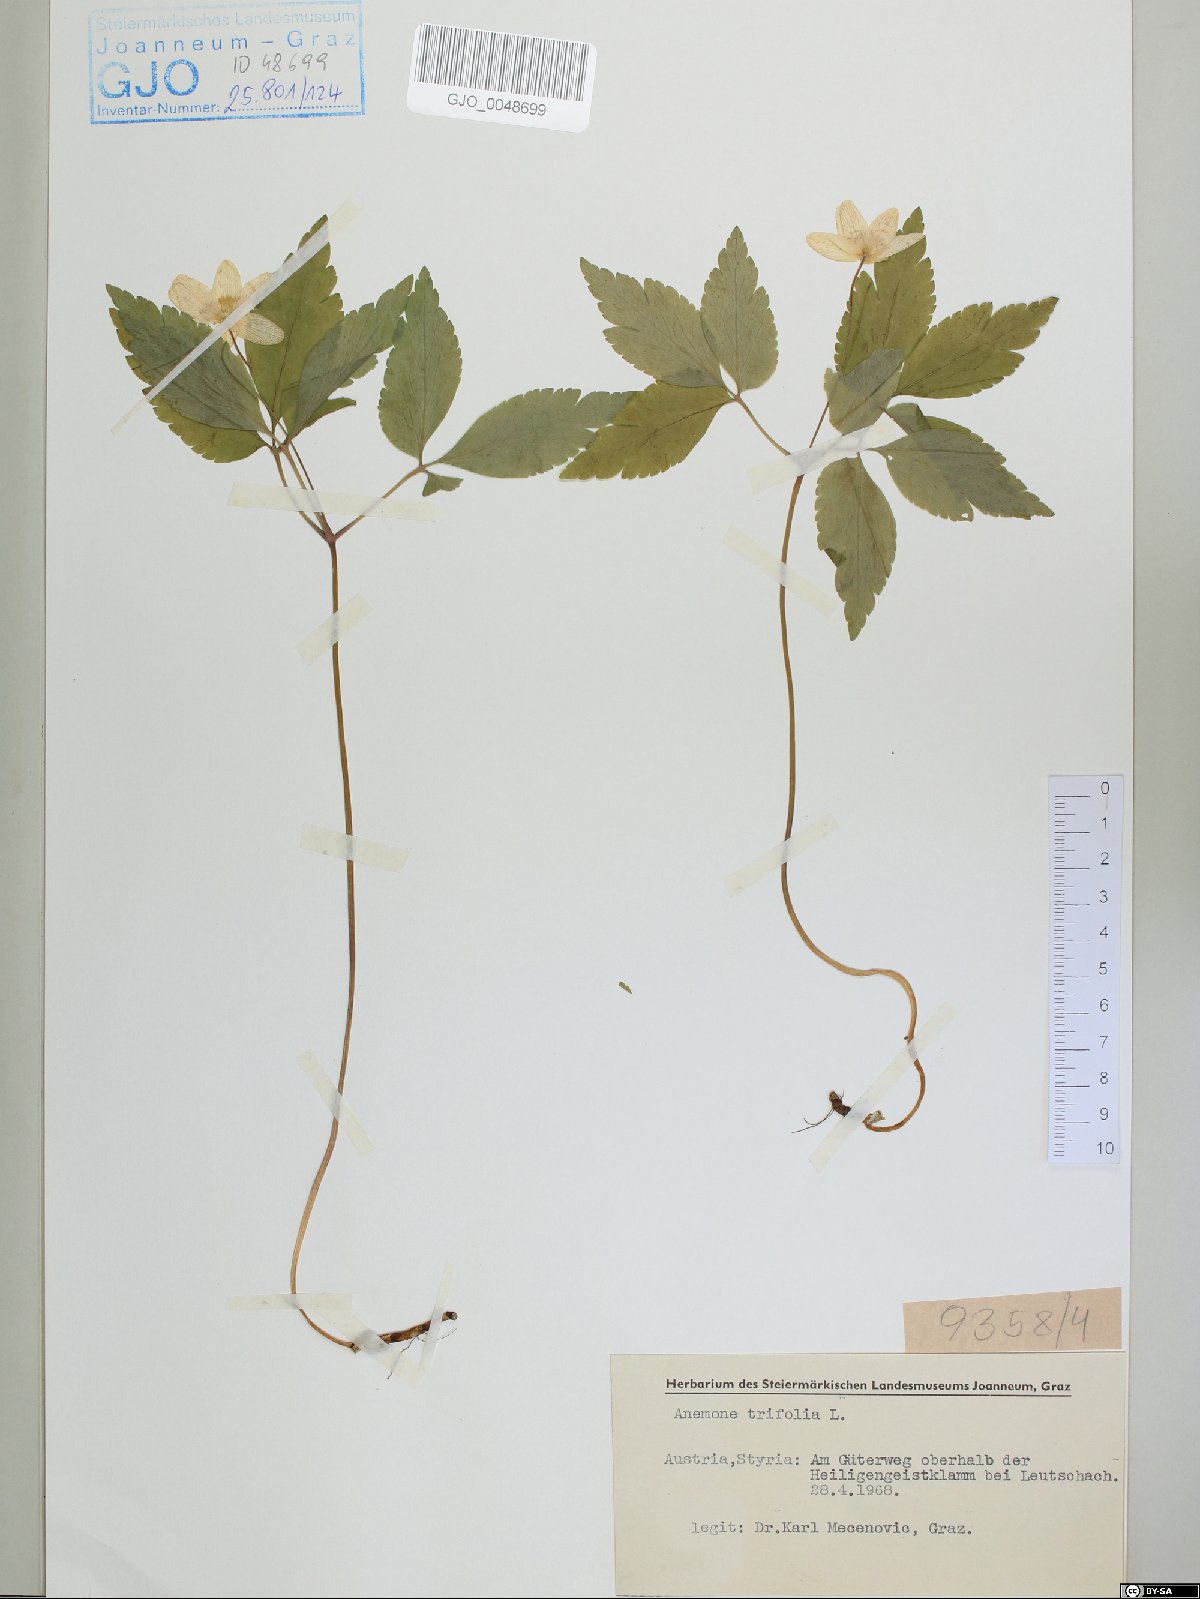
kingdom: Plantae
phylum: Tracheophyta
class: Magnoliopsida
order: Ranunculales
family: Ranunculaceae
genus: Anemone
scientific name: Anemone trifolia
